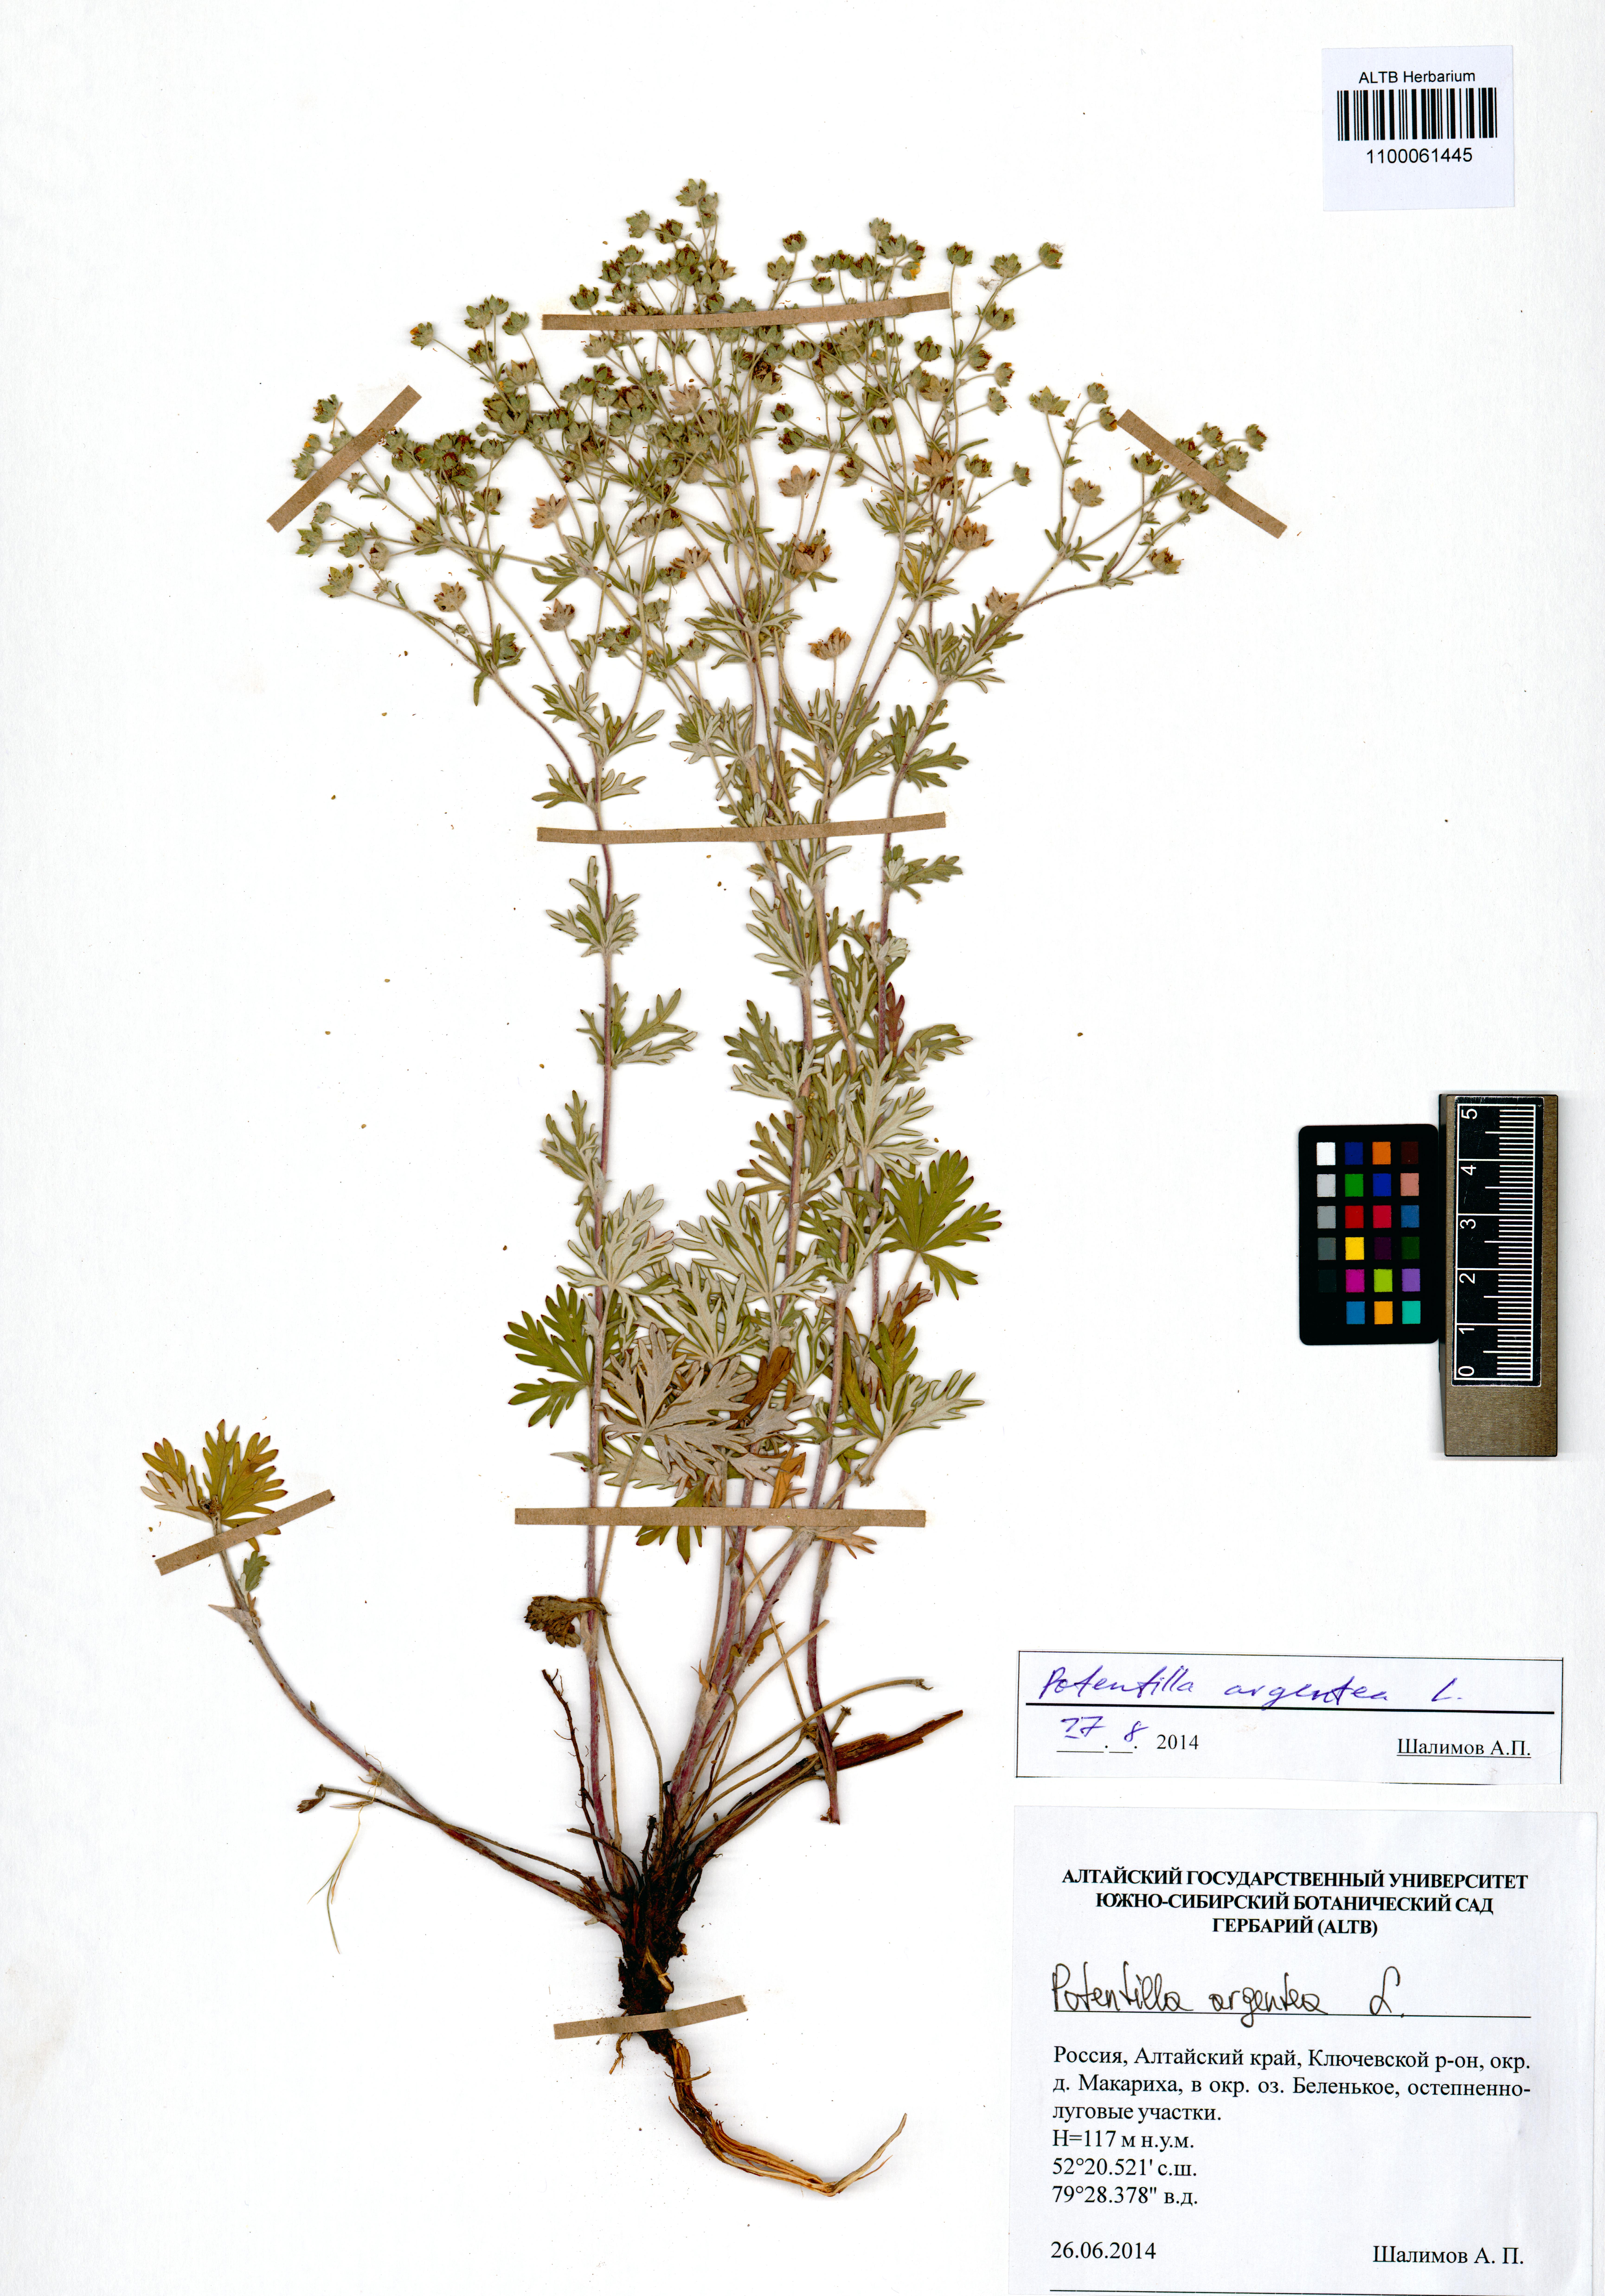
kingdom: Plantae
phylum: Tracheophyta
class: Magnoliopsida
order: Rosales
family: Rosaceae
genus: Potentilla
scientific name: Potentilla argentea
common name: Hoary cinquefoil
